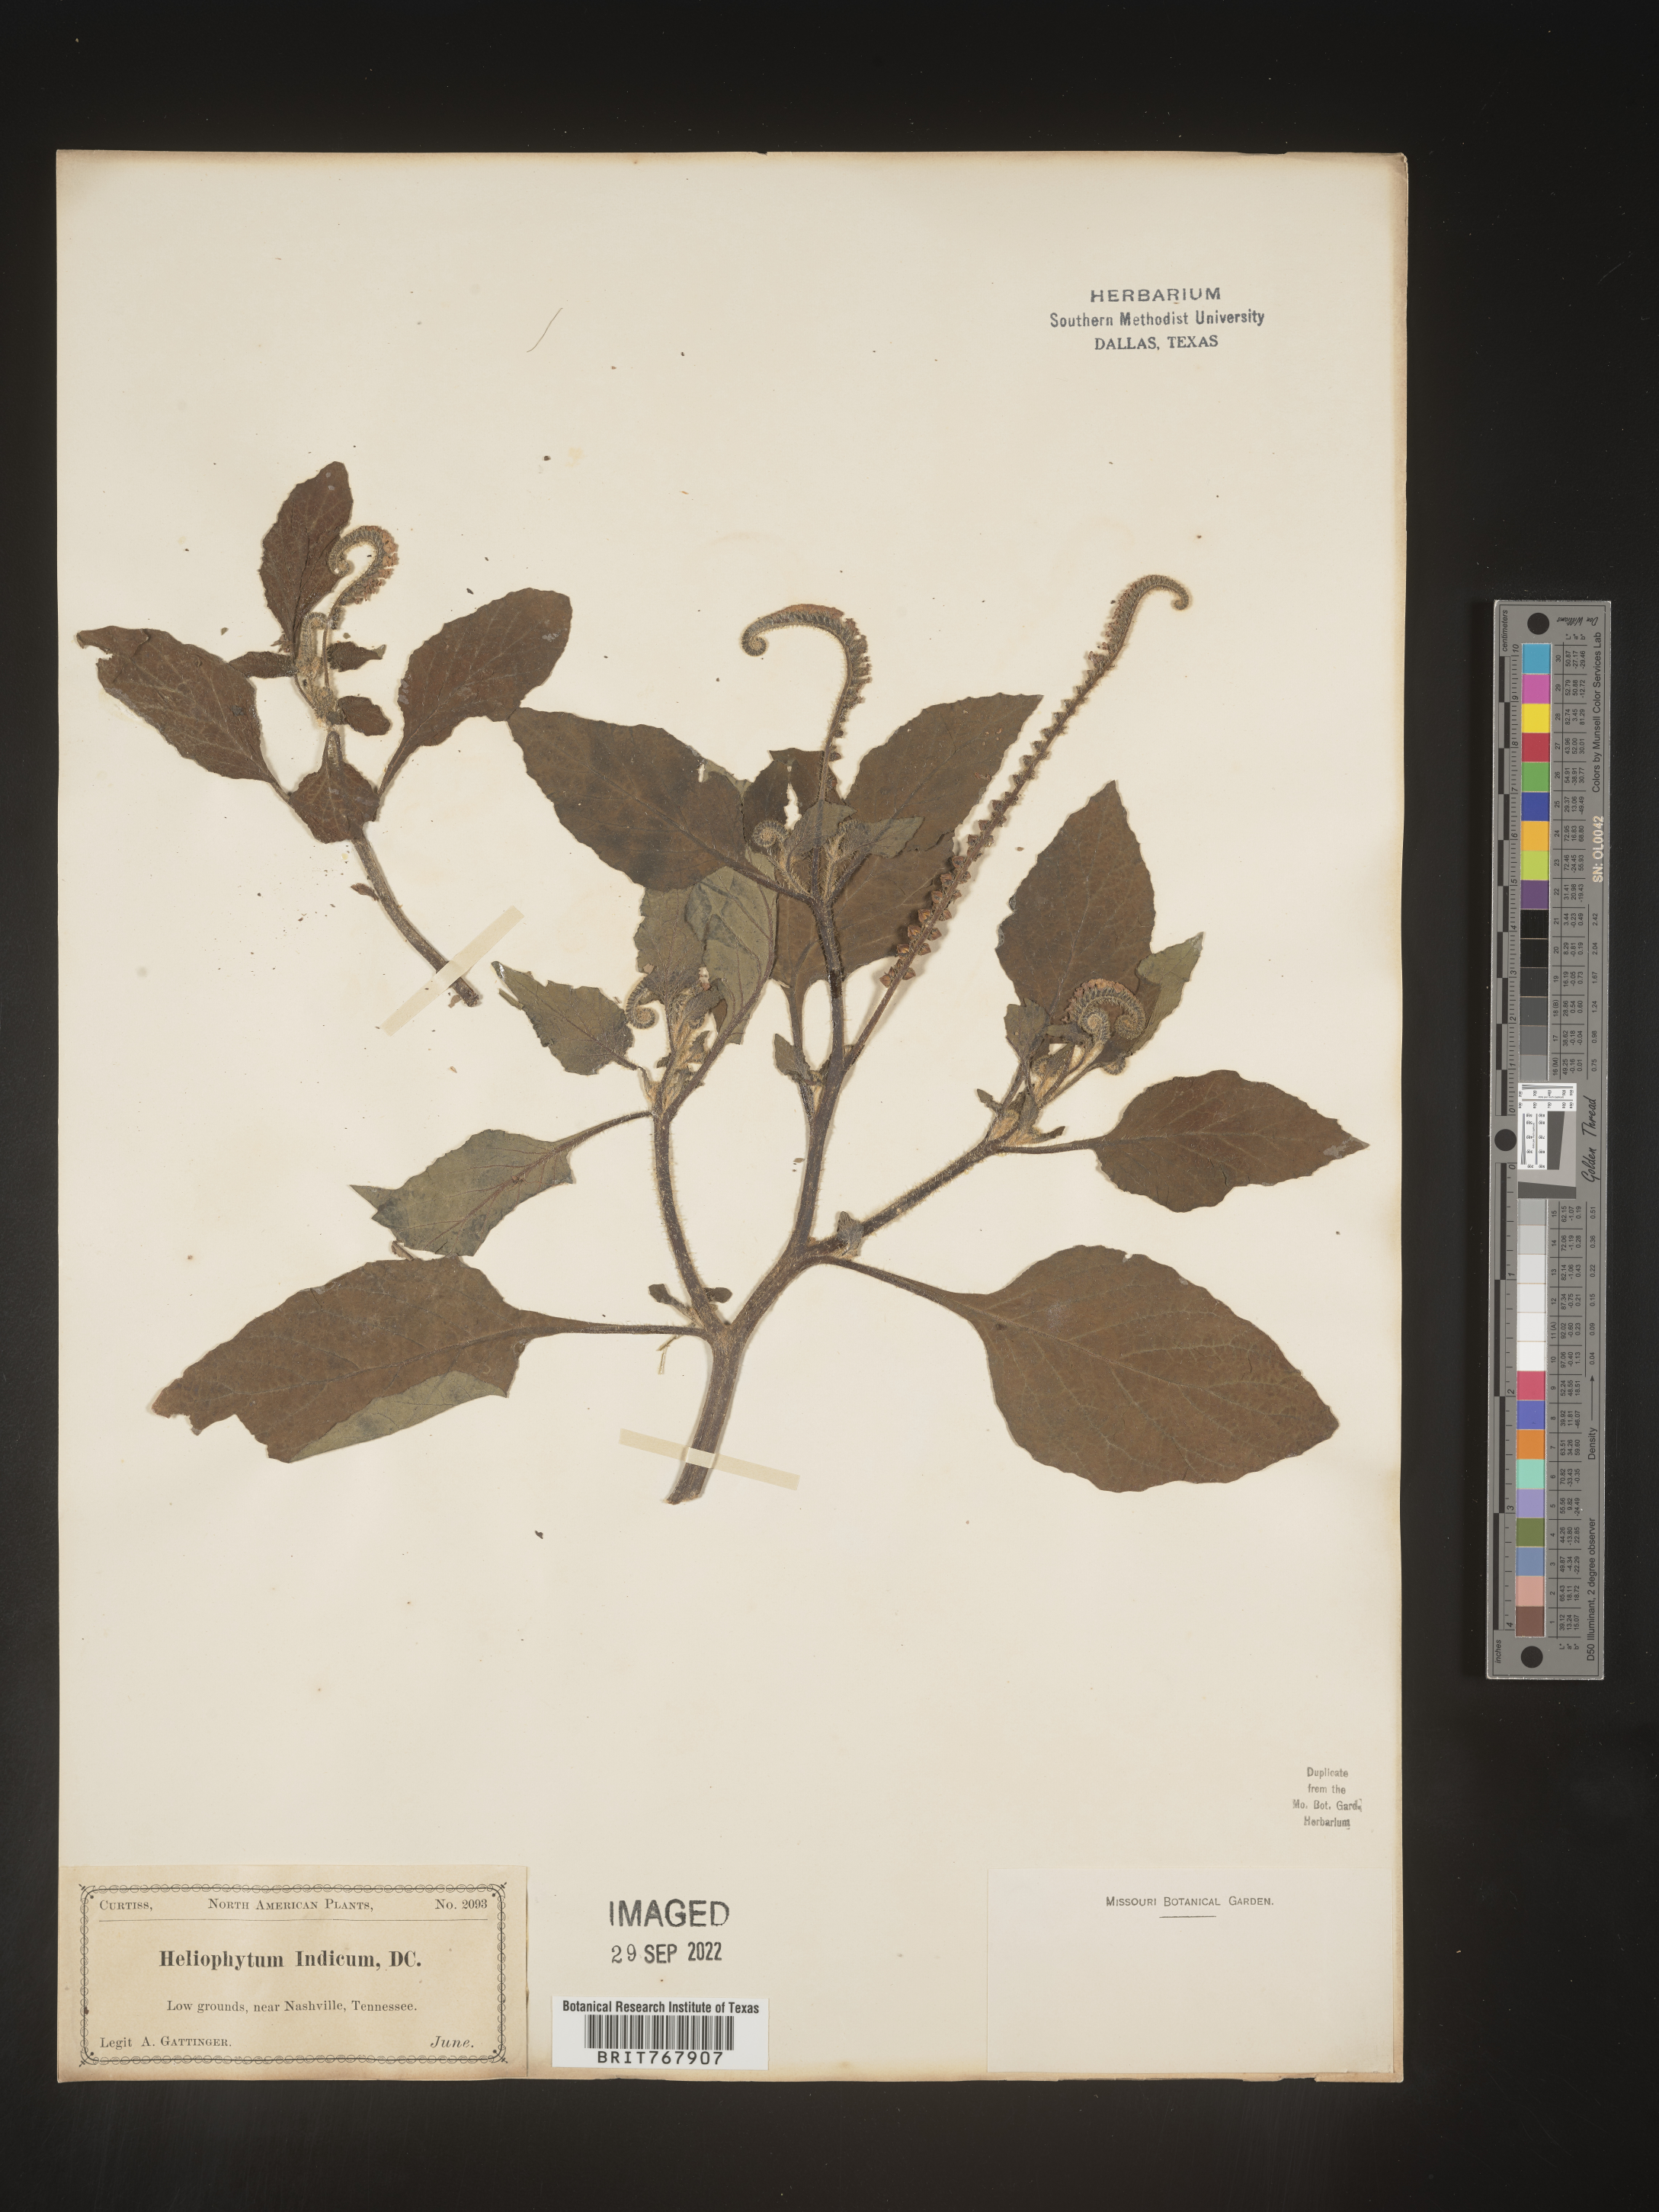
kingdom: Plantae
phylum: Tracheophyta
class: Magnoliopsida
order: Boraginales
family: Heliotropiaceae
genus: Heliotropium
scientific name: Heliotropium indicum
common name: Indian heliotrope
